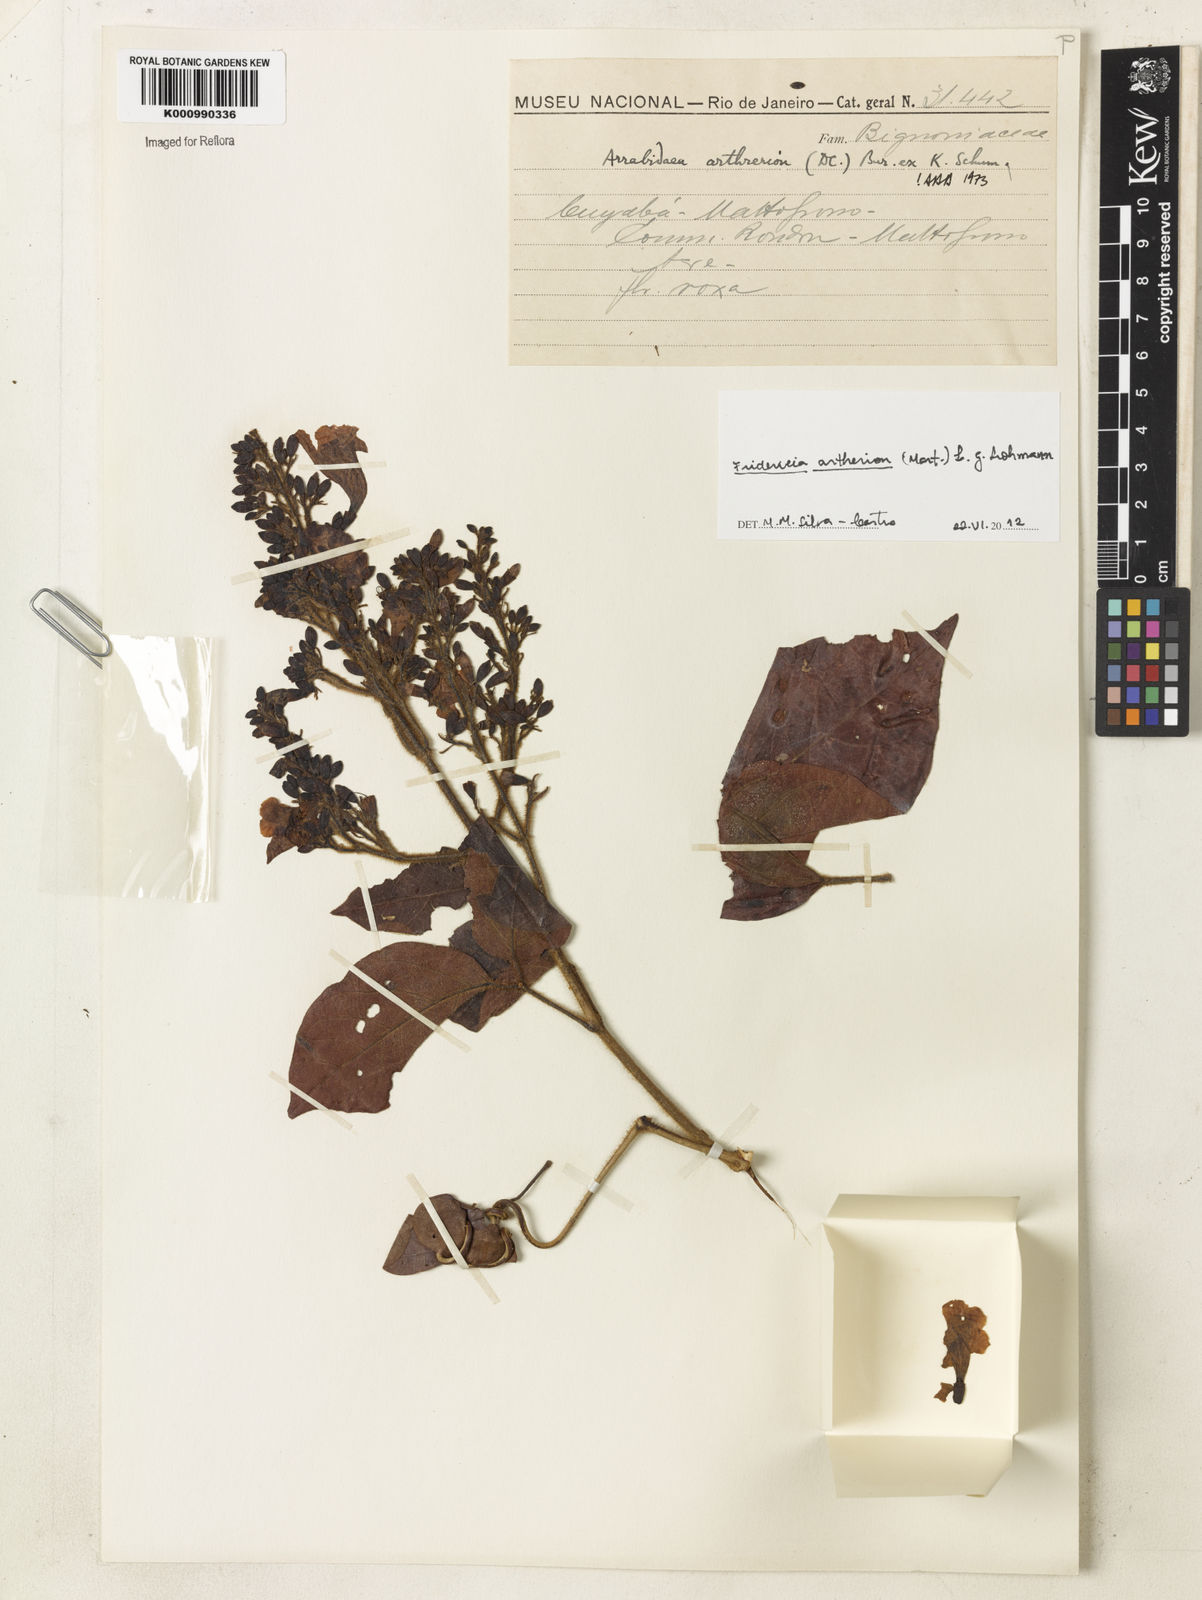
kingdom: Plantae
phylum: Tracheophyta
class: Magnoliopsida
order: Lamiales
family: Bignoniaceae
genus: Fridericia
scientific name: Fridericia
